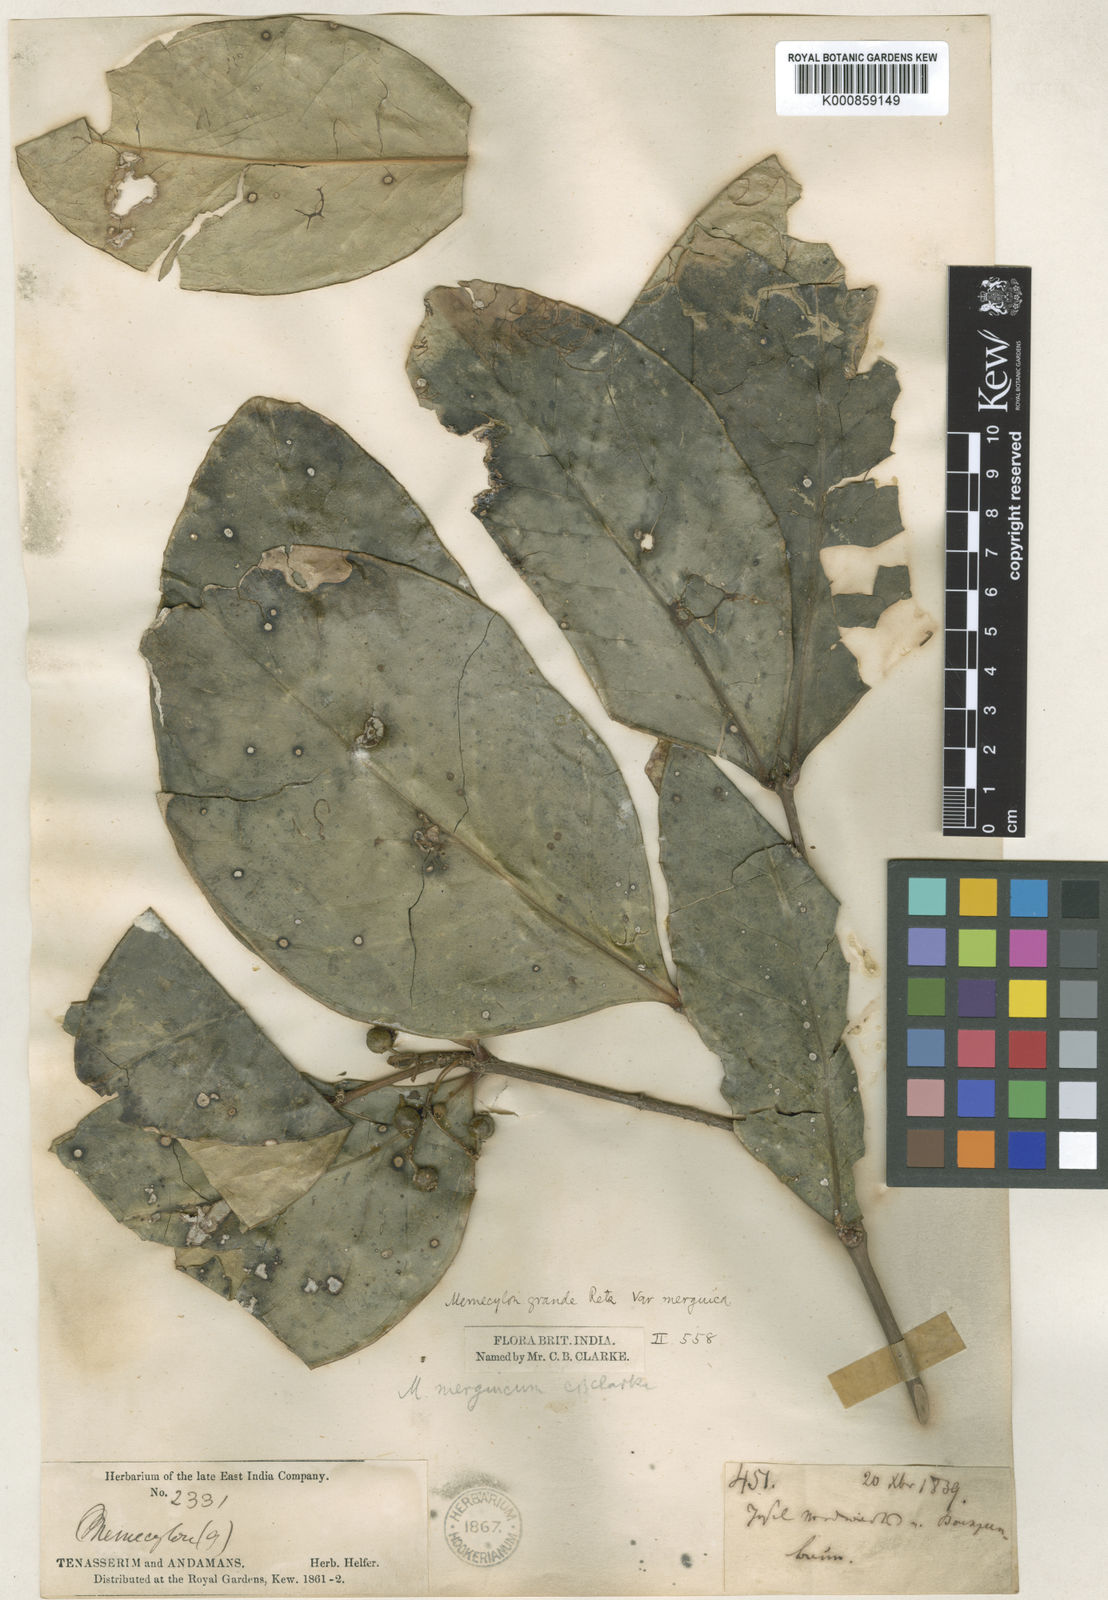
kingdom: Plantae
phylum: Tracheophyta
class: Magnoliopsida
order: Myrtales
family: Melastomataceae
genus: Memecylon
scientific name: Memecylon merguicum
